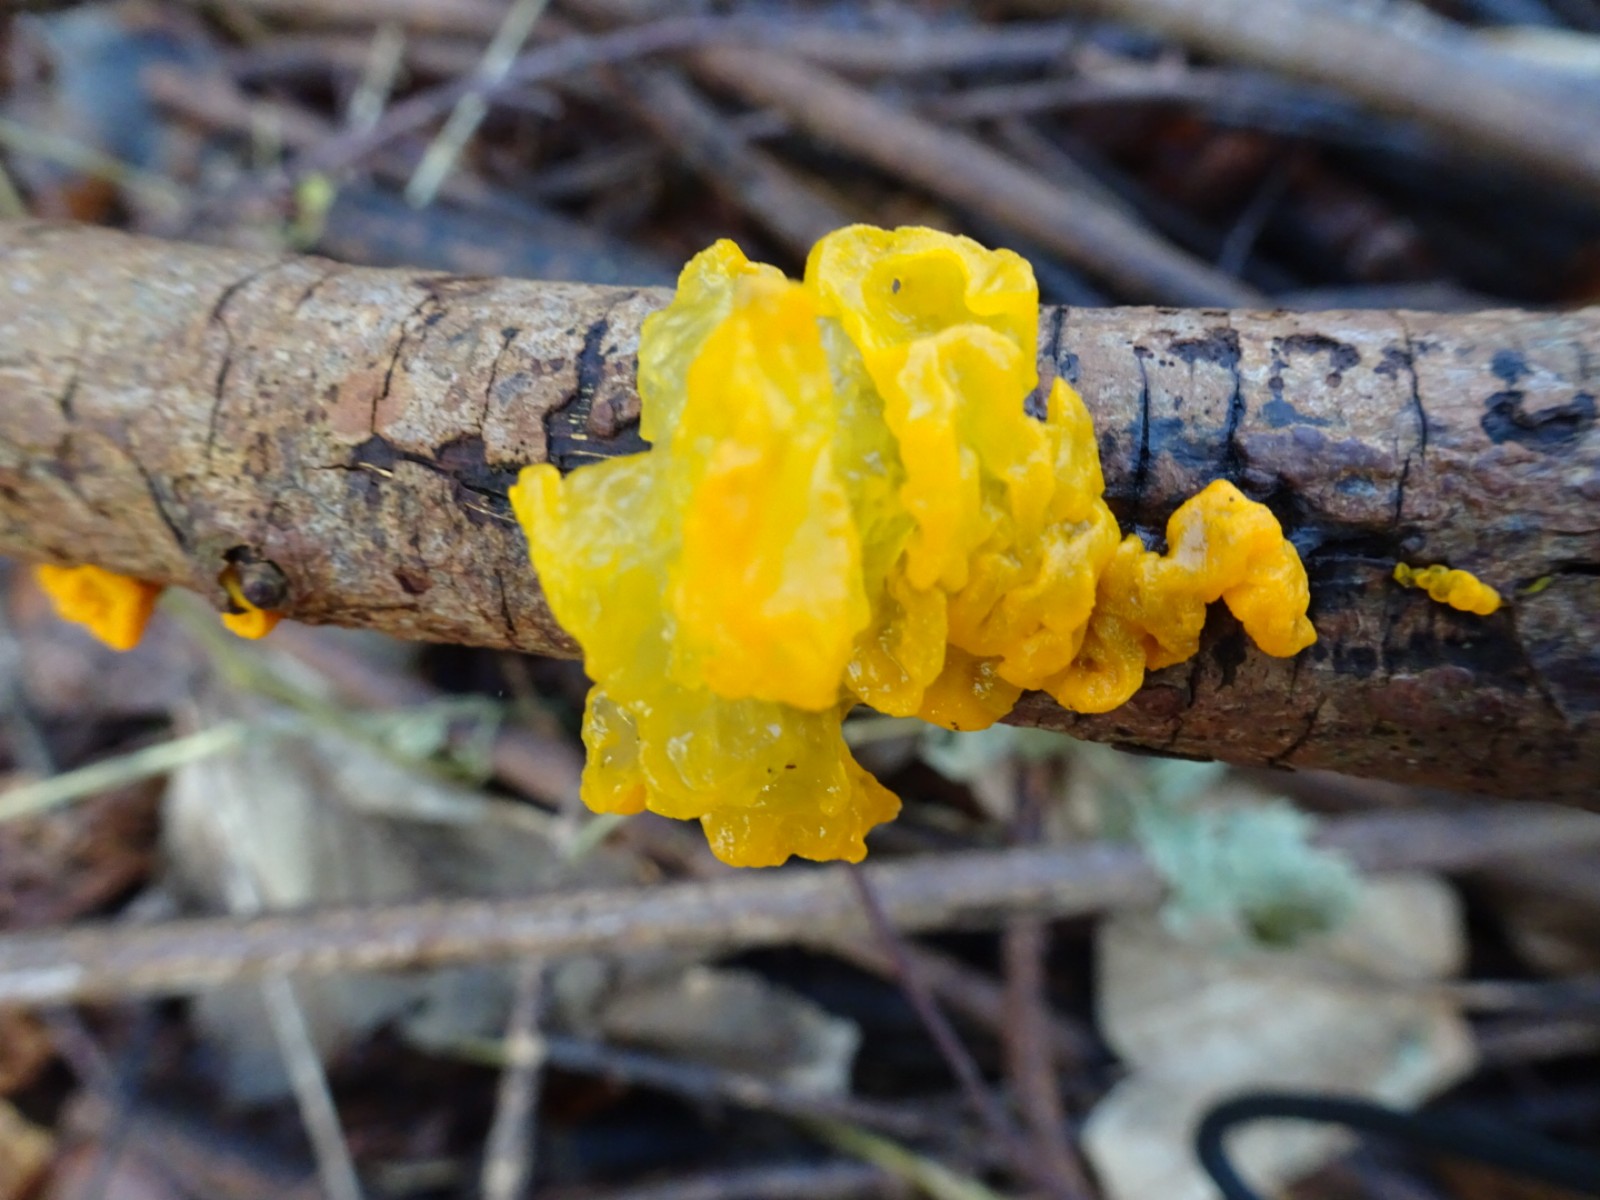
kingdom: Fungi
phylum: Basidiomycota
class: Tremellomycetes
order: Tremellales
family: Tremellaceae
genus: Tremella
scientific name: Tremella mesenterica
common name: gul bævresvamp
